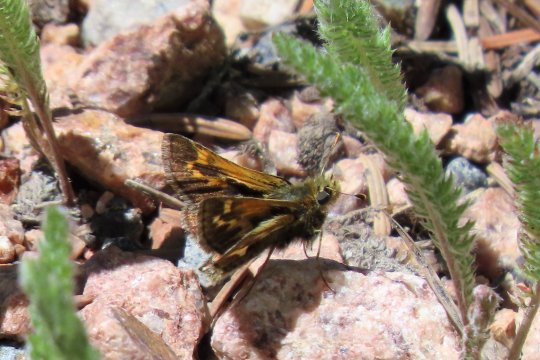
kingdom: Animalia
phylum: Arthropoda
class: Insecta
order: Lepidoptera
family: Hesperiidae
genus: Polites
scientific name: Polites sabuleti
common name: Draco Skipper
